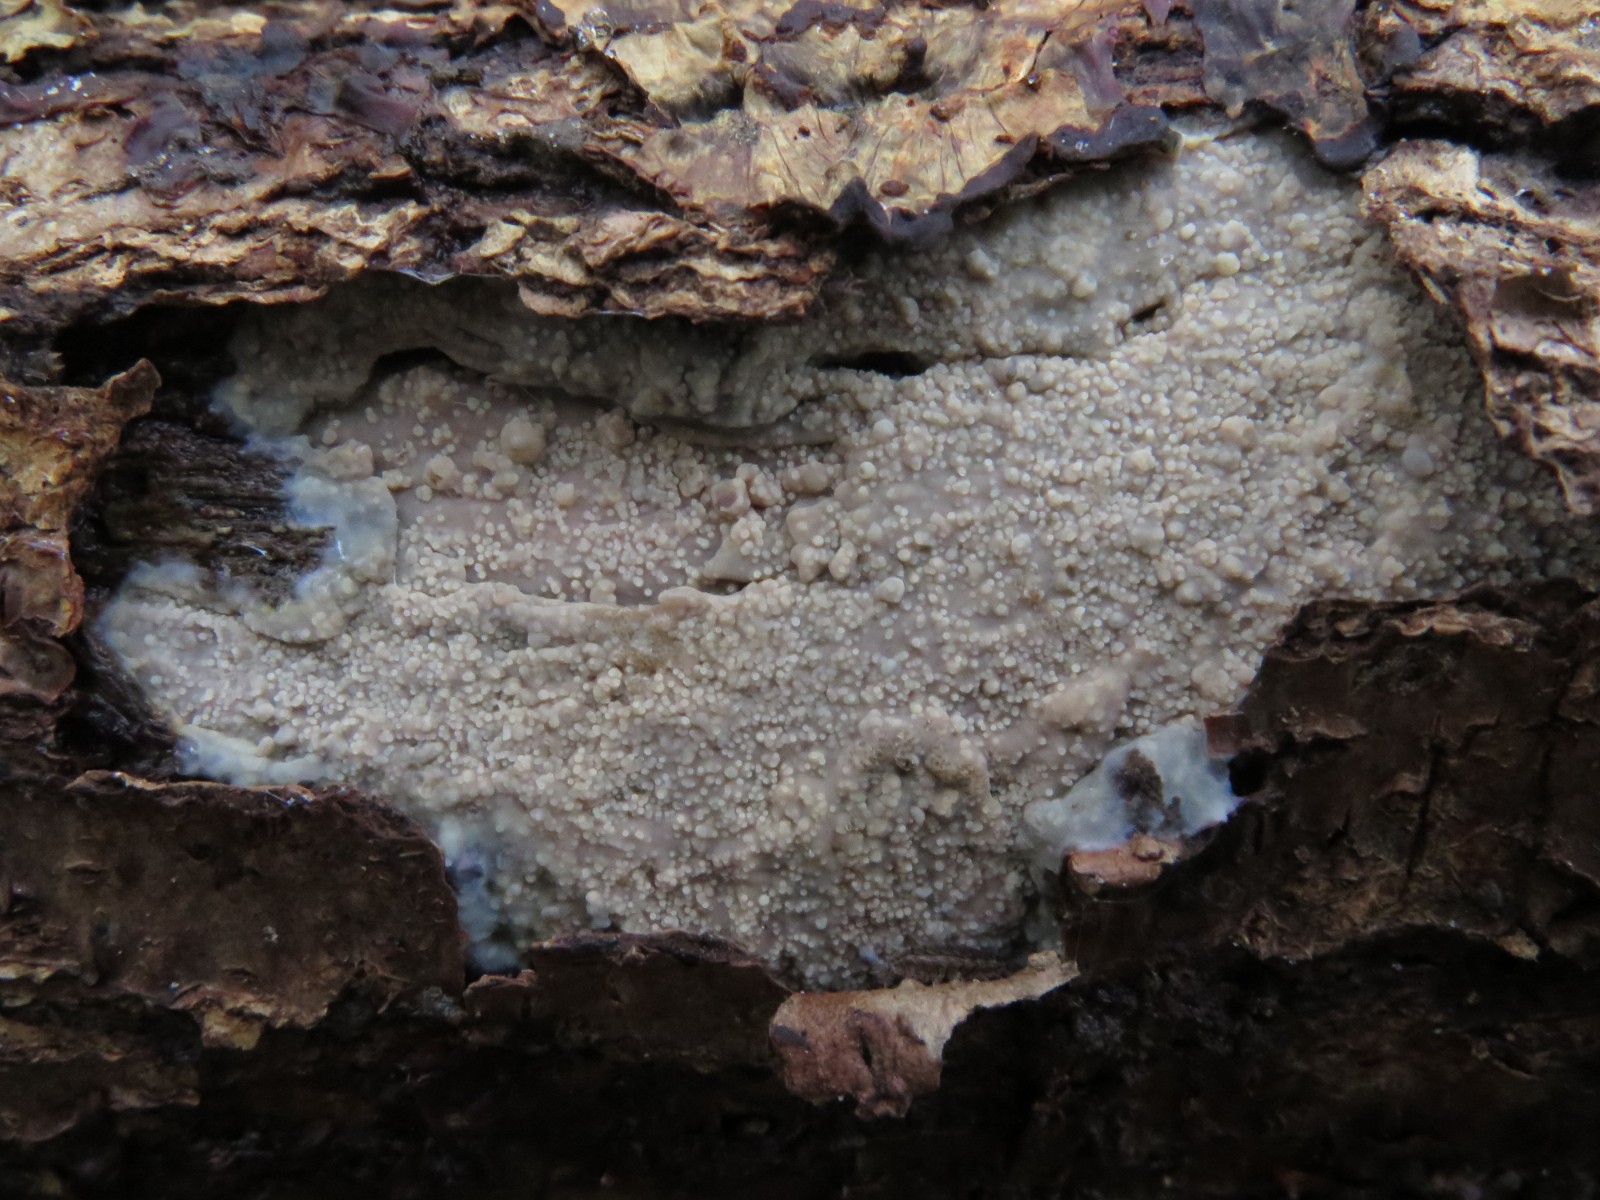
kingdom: Fungi
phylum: Basidiomycota
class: Agaricomycetes
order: Polyporales
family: Meruliaceae
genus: Cytidiella
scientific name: Cytidiella albida
